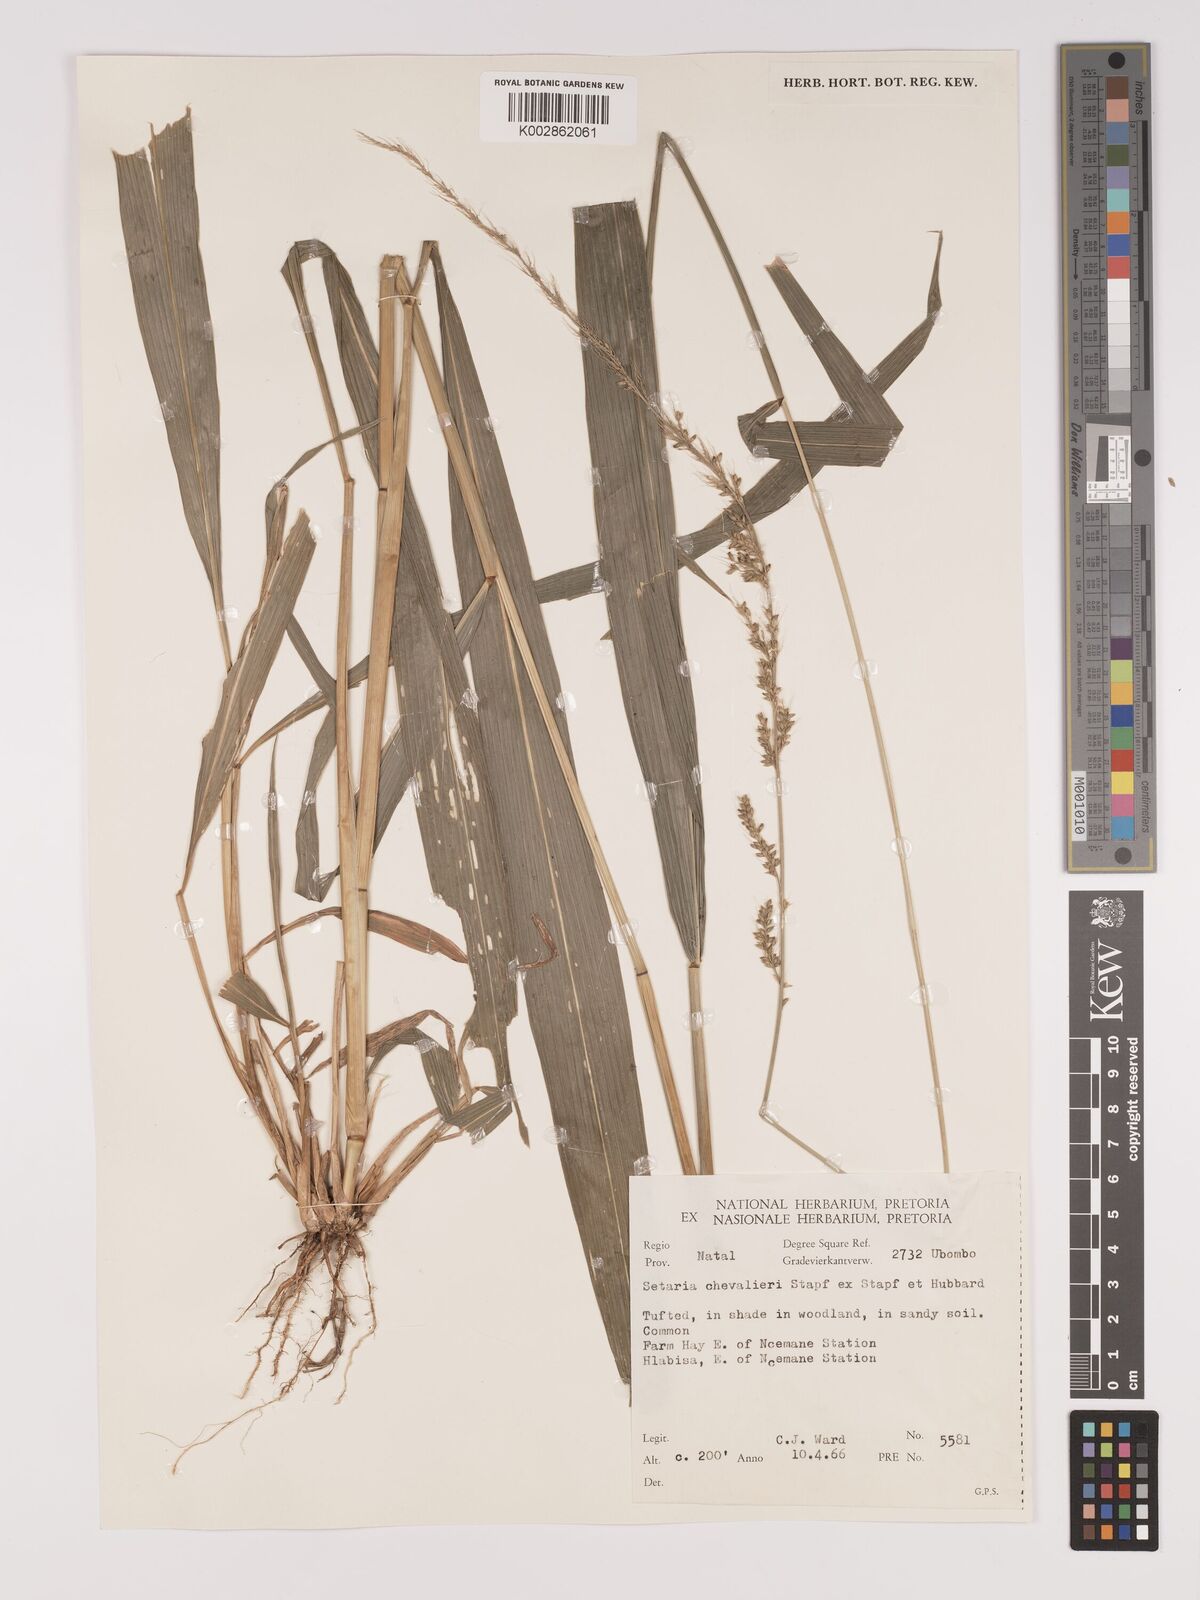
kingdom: Plantae
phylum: Tracheophyta
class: Liliopsida
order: Poales
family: Poaceae
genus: Setaria
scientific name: Setaria megaphylla
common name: Bigleaf bristlegrass
